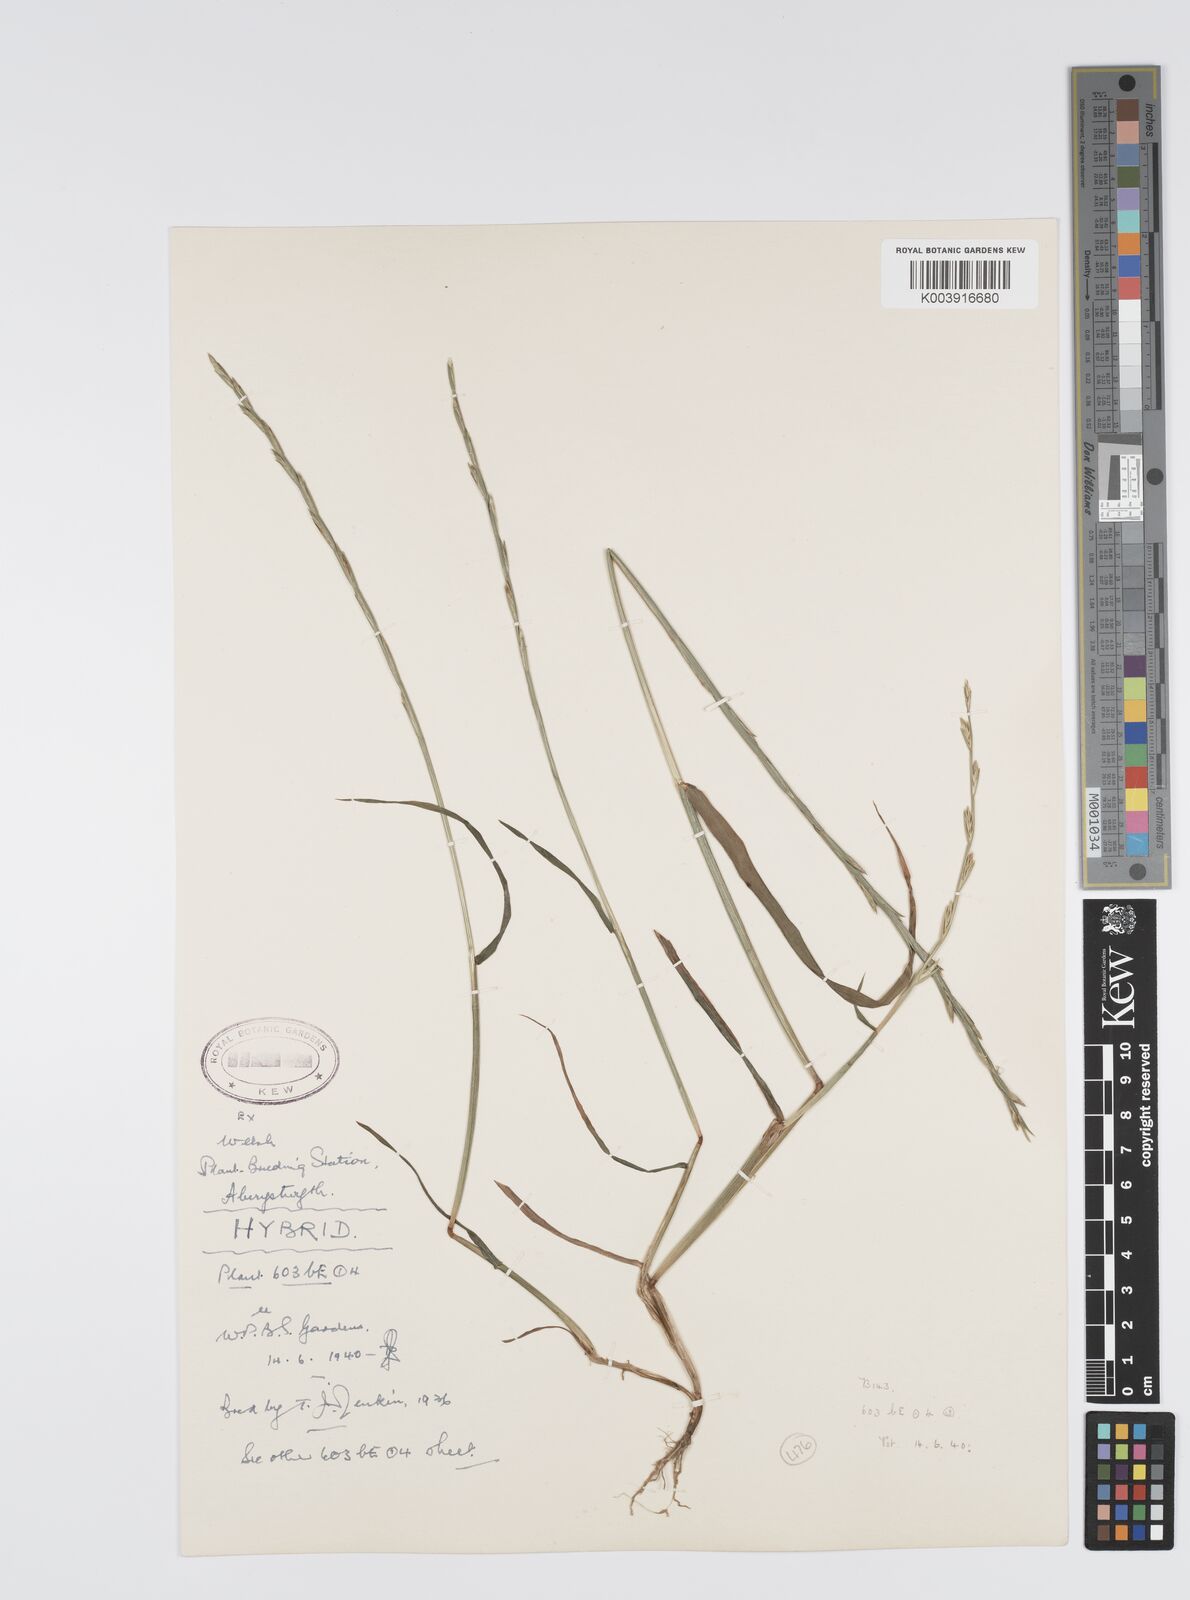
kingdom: Plantae
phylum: Tracheophyta
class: Liliopsida
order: Poales
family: Poaceae
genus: Lolium
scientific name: Lolium perenne
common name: Perennial ryegrass
